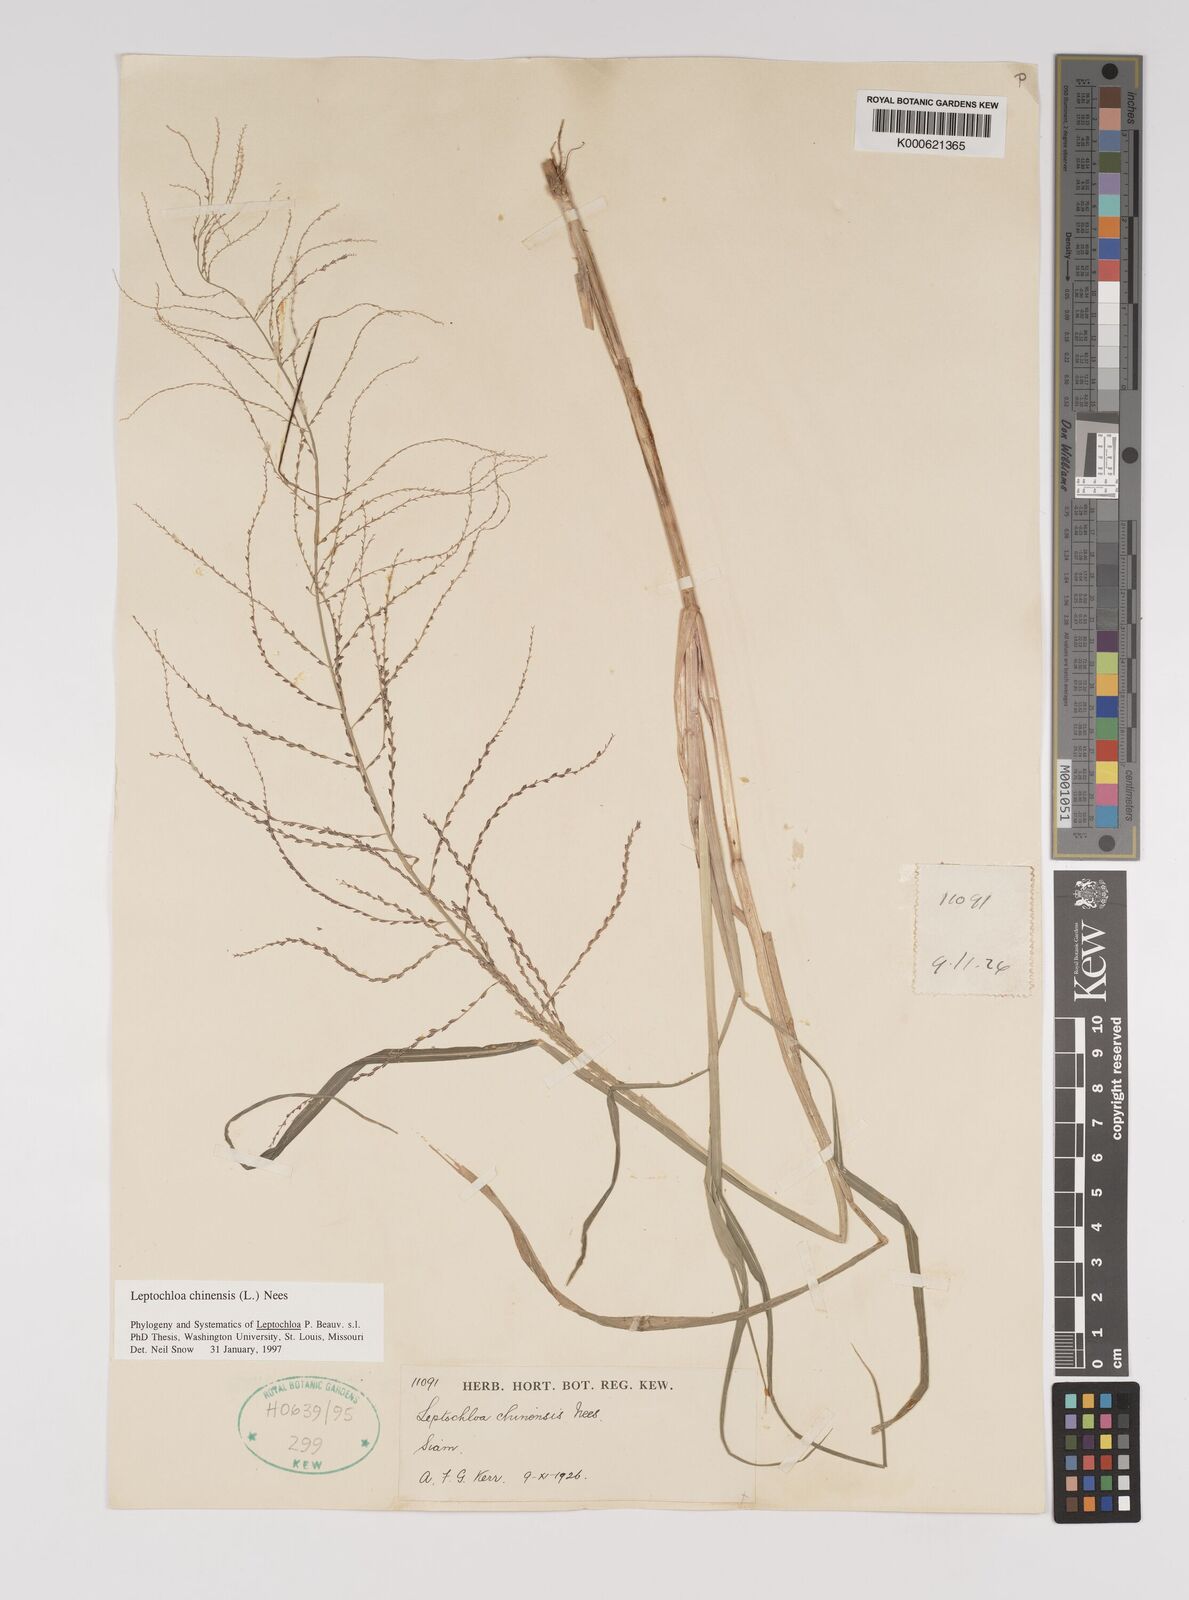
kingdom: Plantae
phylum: Tracheophyta
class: Liliopsida
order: Poales
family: Poaceae
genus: Leptochloa
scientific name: Leptochloa chinensis
